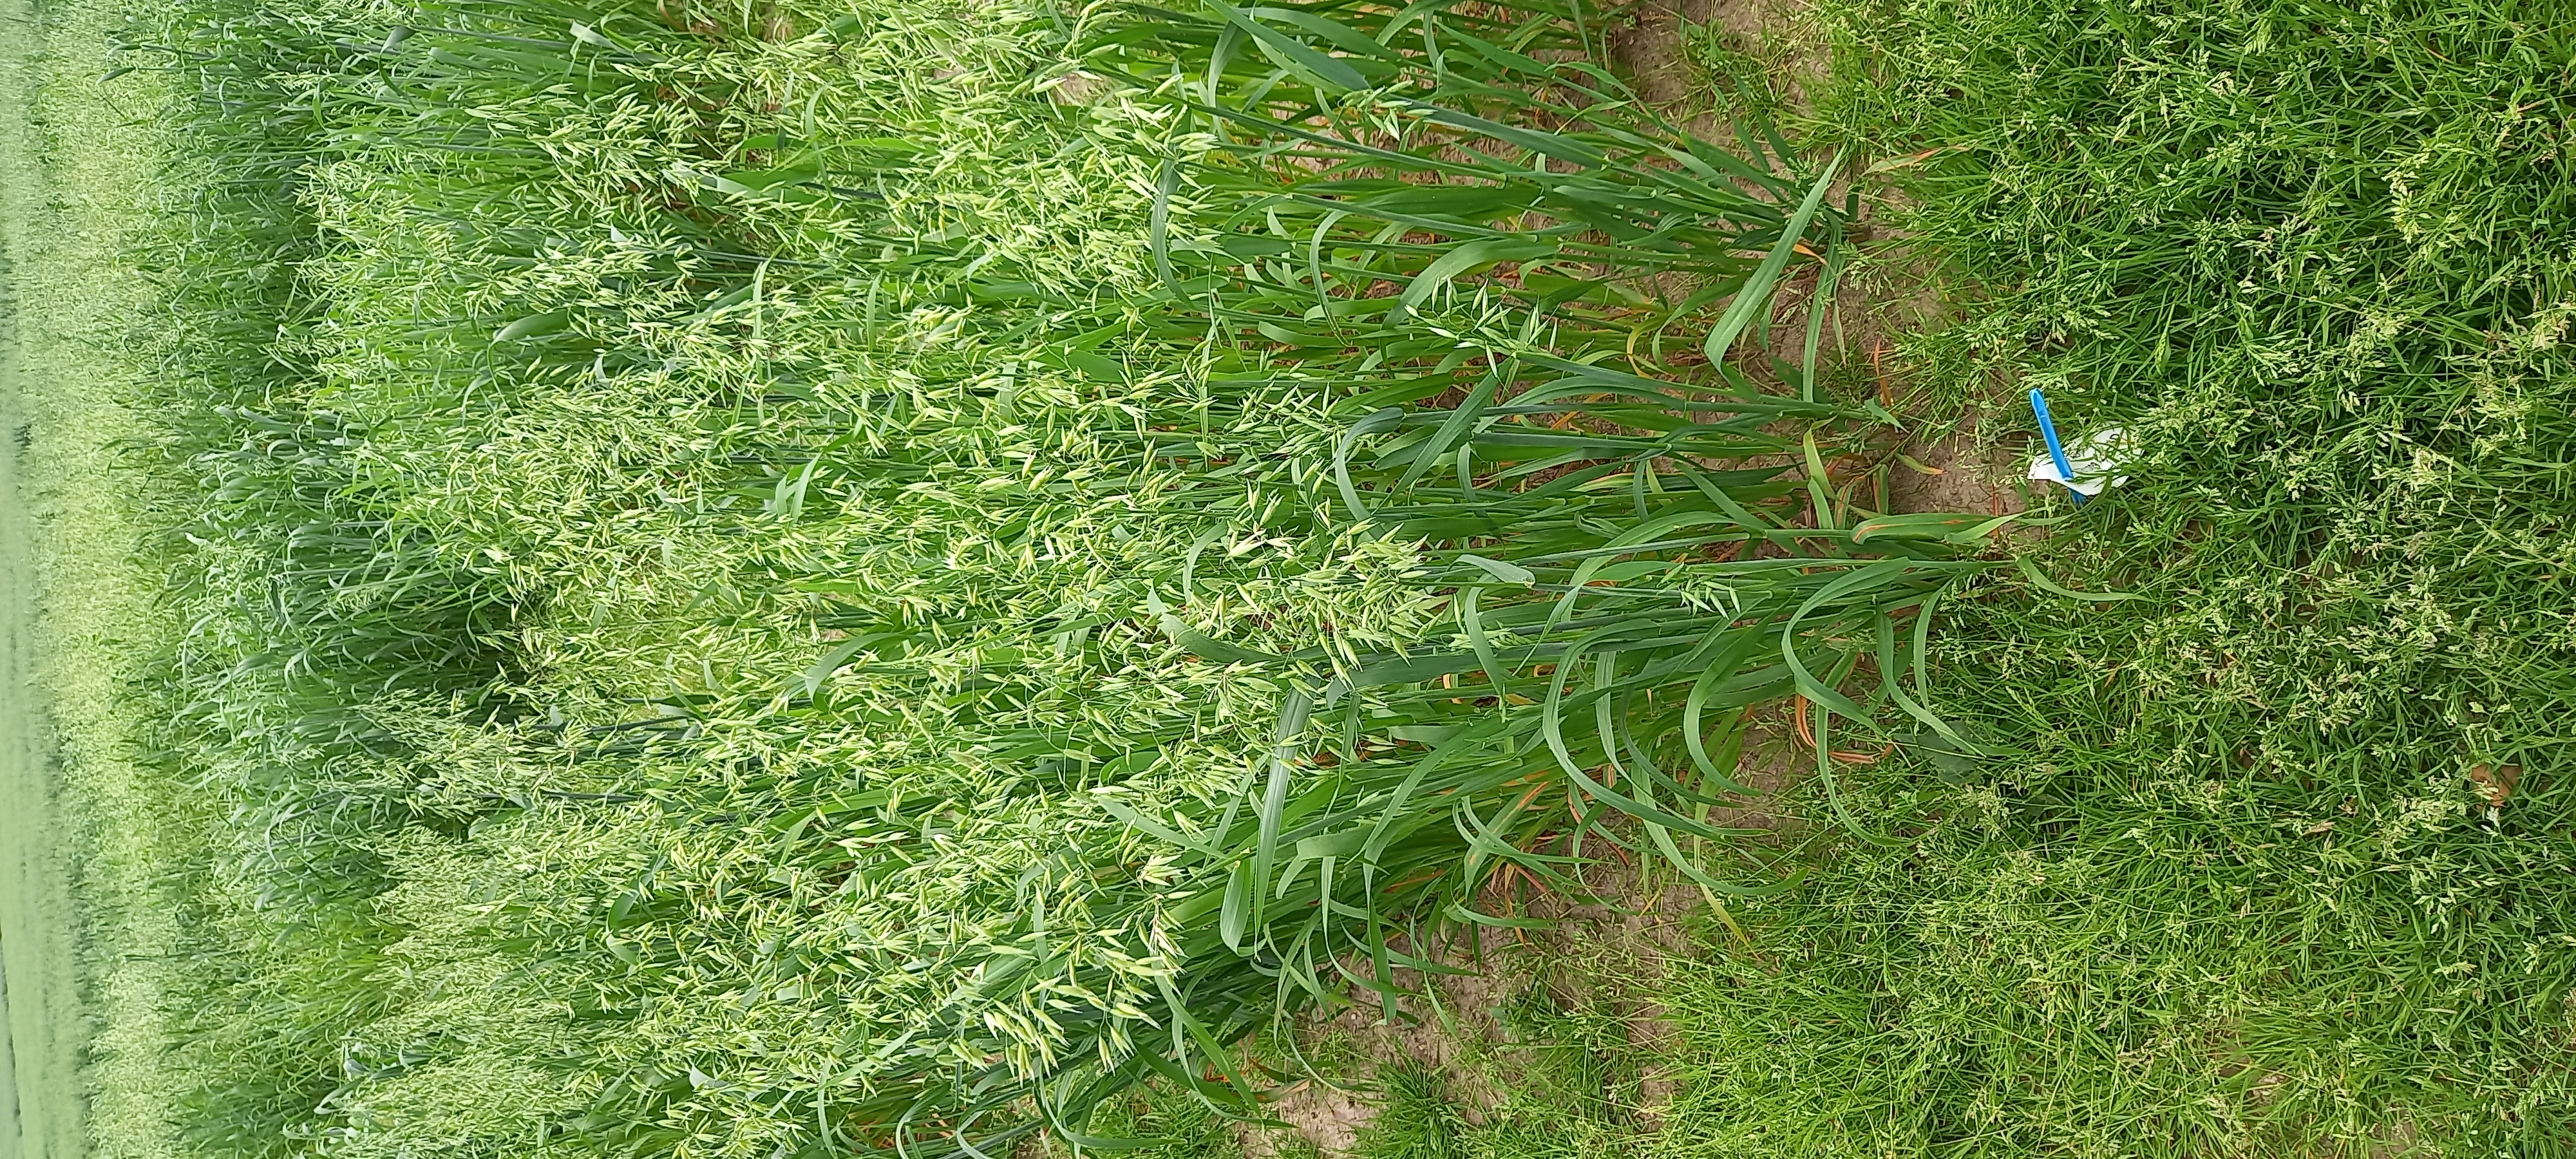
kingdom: Plantae
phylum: Tracheophyta
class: Liliopsida
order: Poales
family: Poaceae
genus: Avena
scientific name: Avena sativa
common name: Oat
